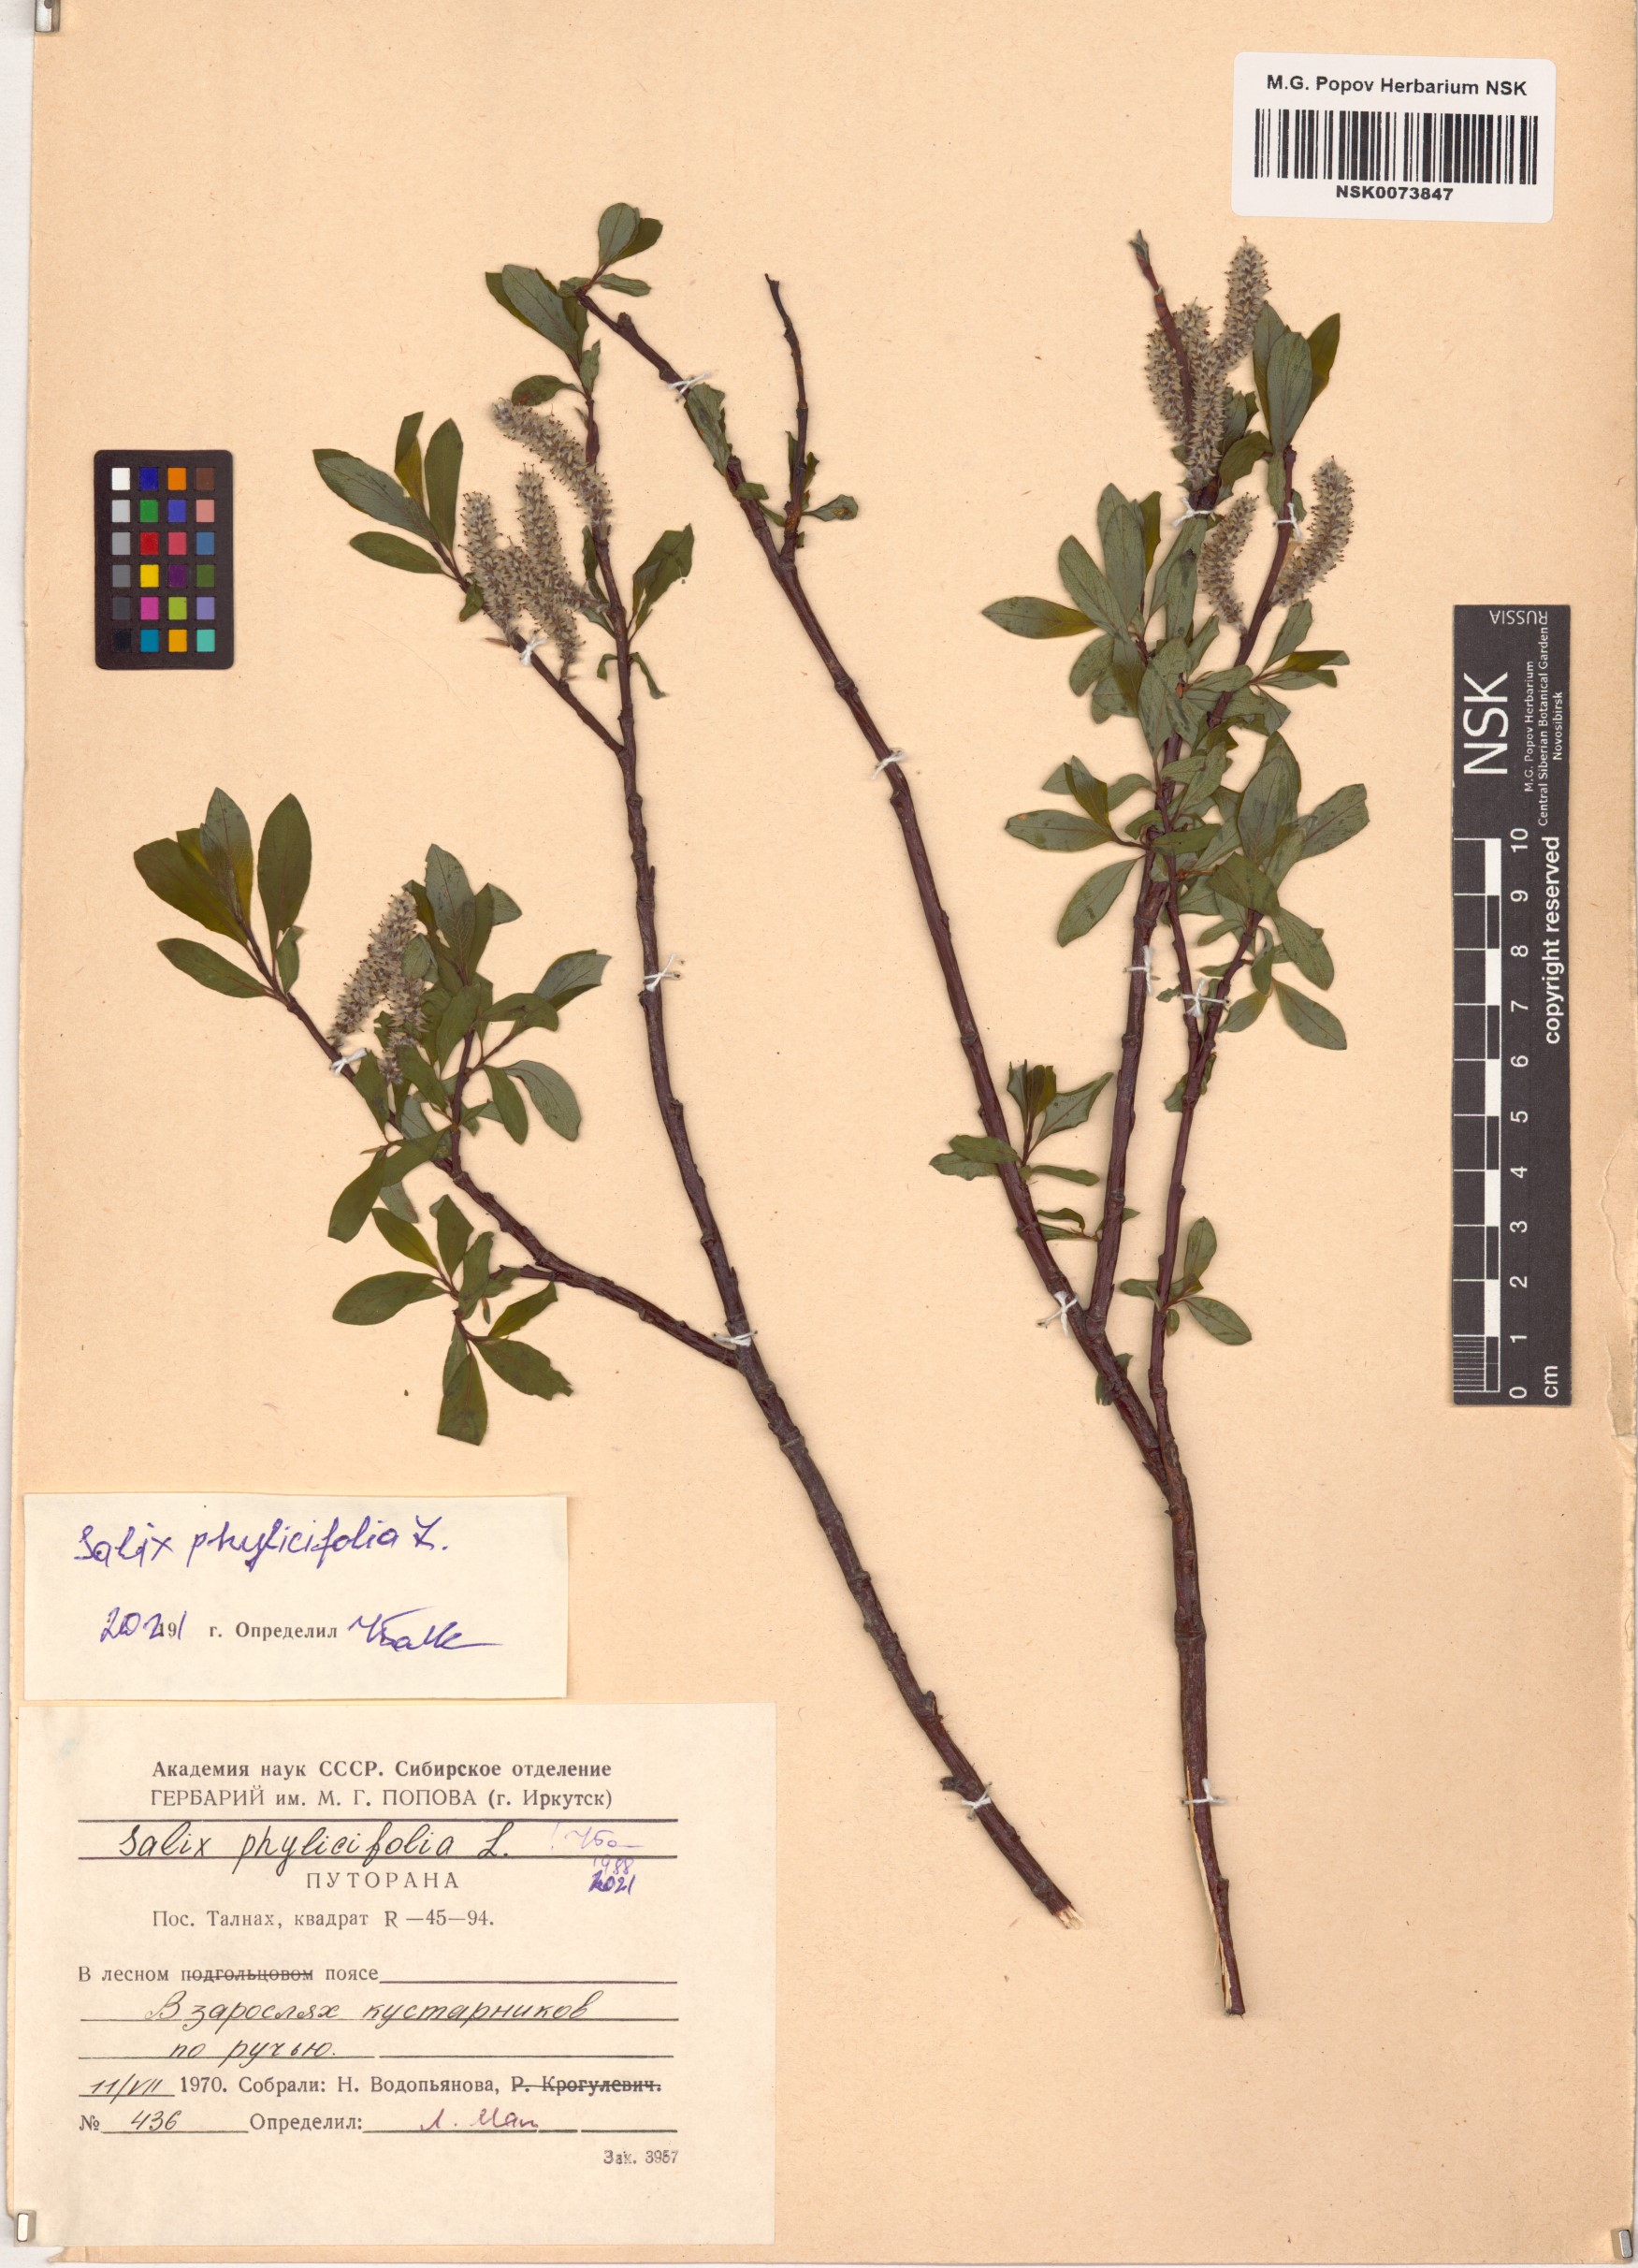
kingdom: Plantae
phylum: Tracheophyta
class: Magnoliopsida
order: Malpighiales
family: Salicaceae
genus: Salix
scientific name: Salix phylicifolia
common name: Tea-leaved willow
